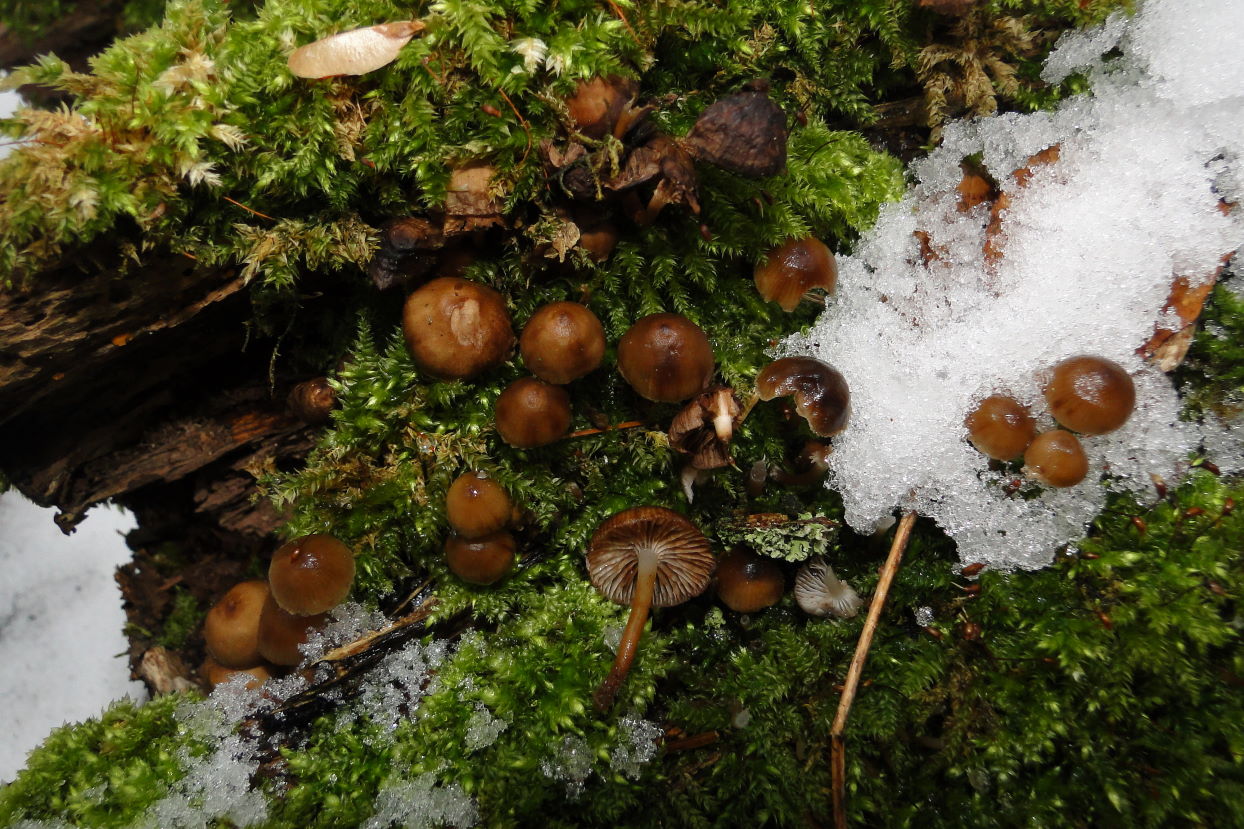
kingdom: Fungi
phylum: Basidiomycota
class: Agaricomycetes
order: Agaricales
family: Mycenaceae
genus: Mycena
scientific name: Mycena tintinnabulum
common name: vinter-huesvamp
